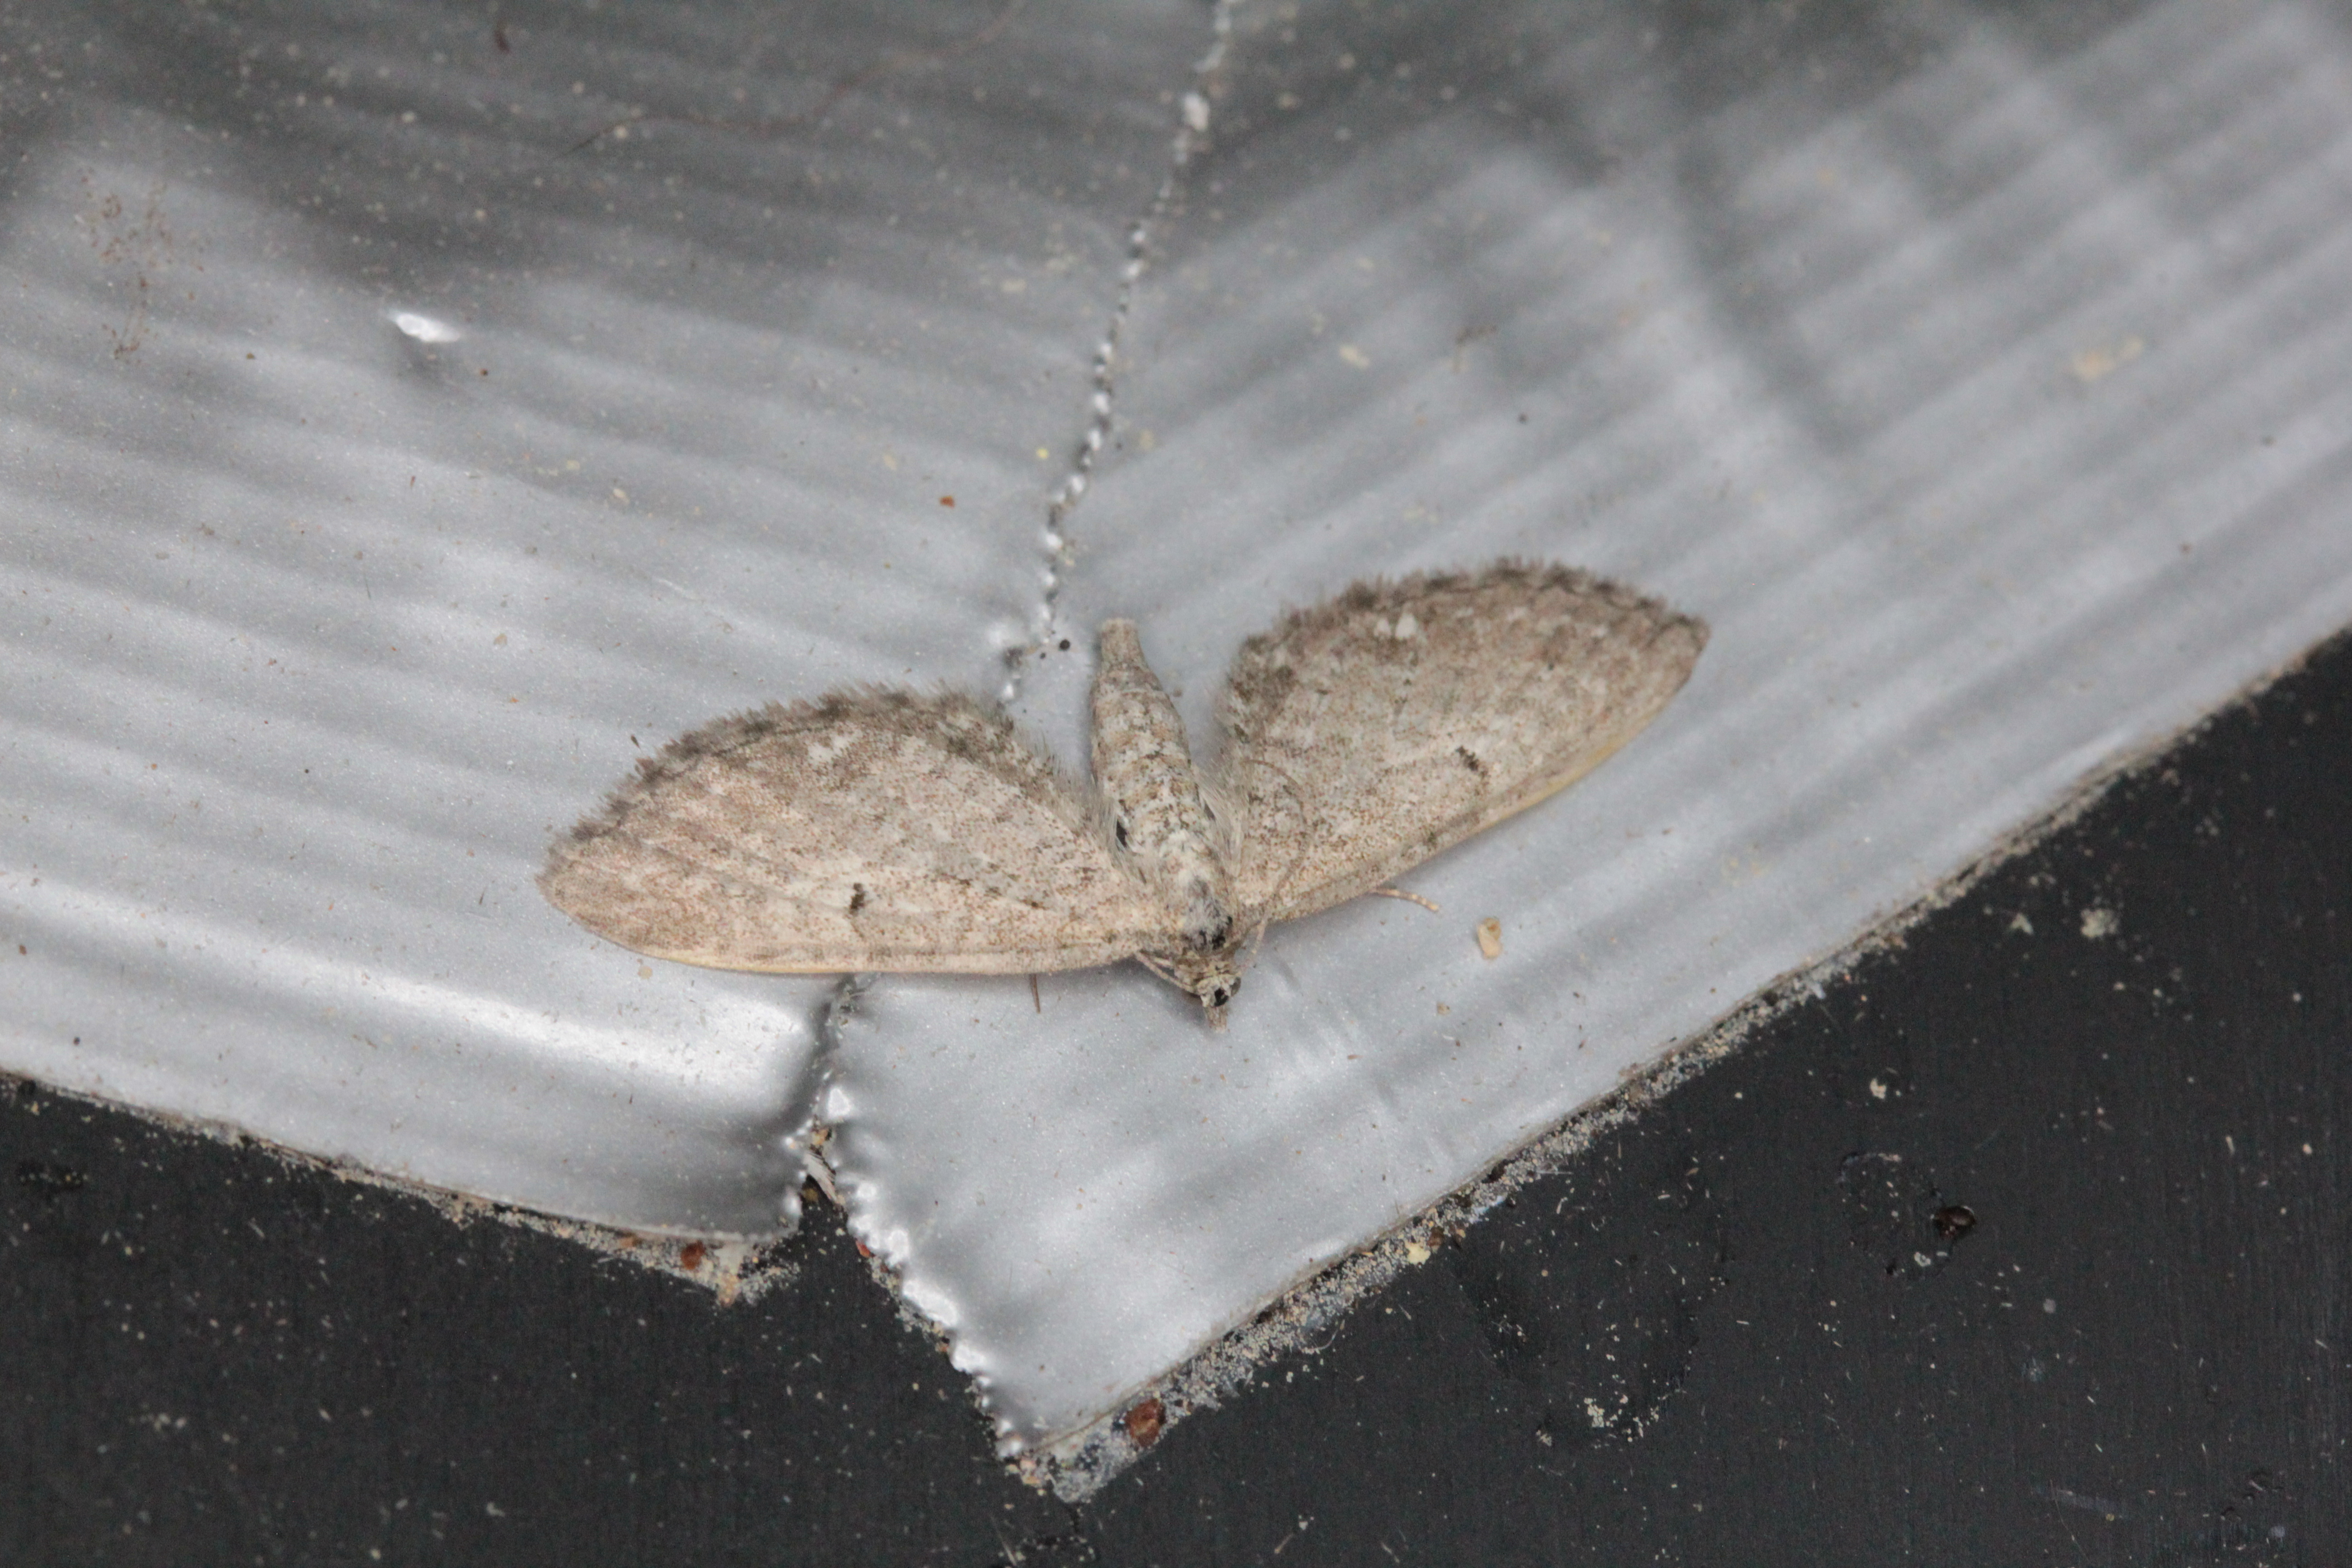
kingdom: Animalia
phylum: Arthropoda
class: Insecta
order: Lepidoptera
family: Geometridae
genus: Eupithecia
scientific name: Eupithecia
